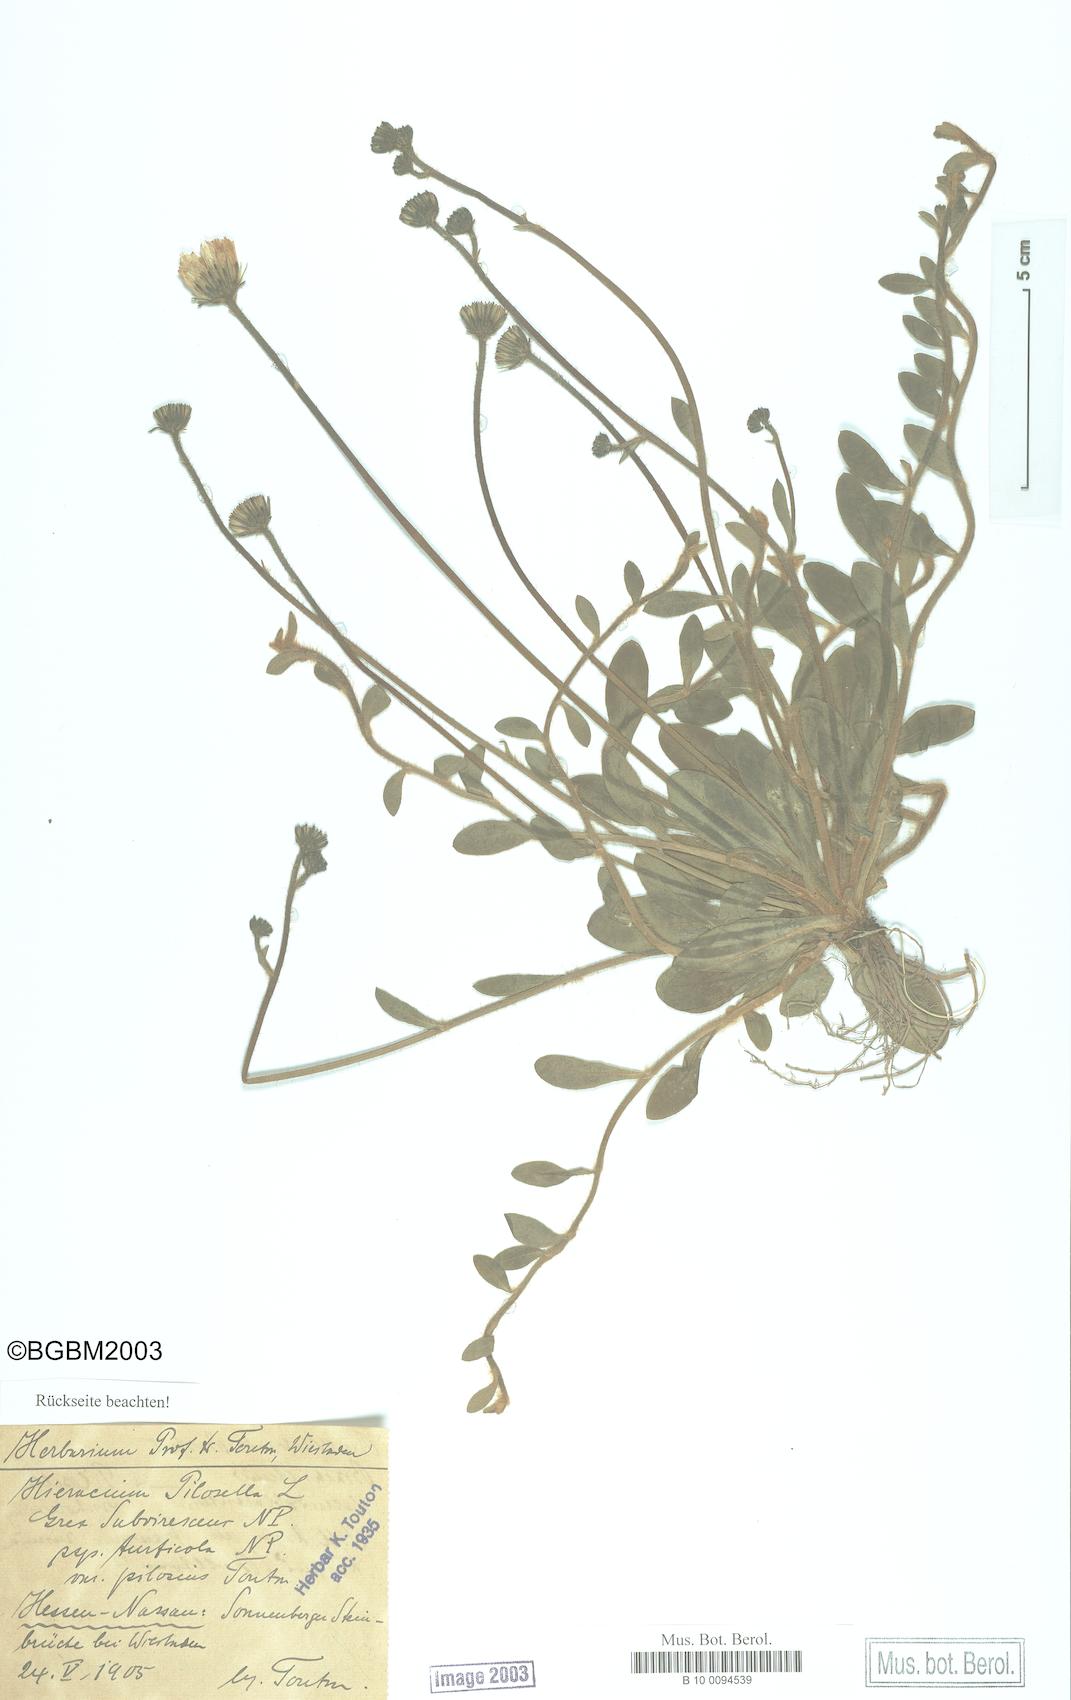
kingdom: Plantae
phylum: Tracheophyta
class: Magnoliopsida
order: Asterales
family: Asteraceae
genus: Pilosella
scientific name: Pilosella officinarum
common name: Mouse-ear hawkweed
